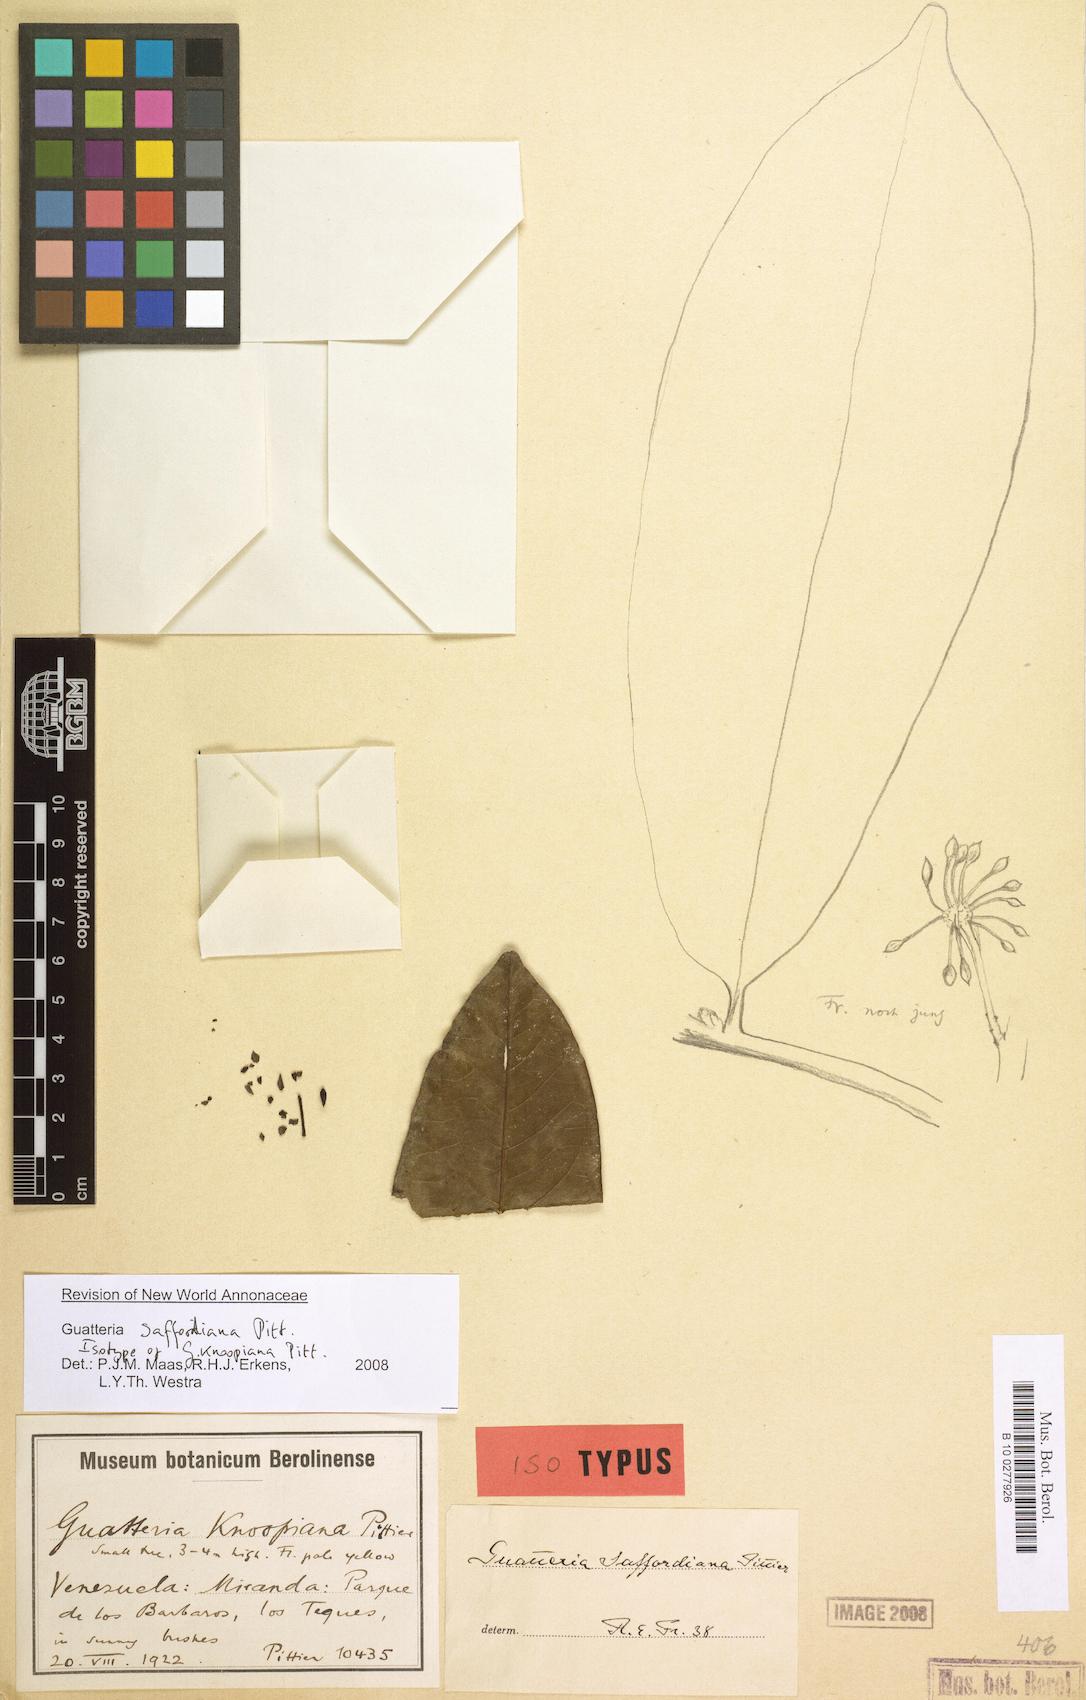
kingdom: Plantae
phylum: Tracheophyta
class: Magnoliopsida
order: Magnoliales
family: Annonaceae
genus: Guatteria
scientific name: Guatteria saffordiana
